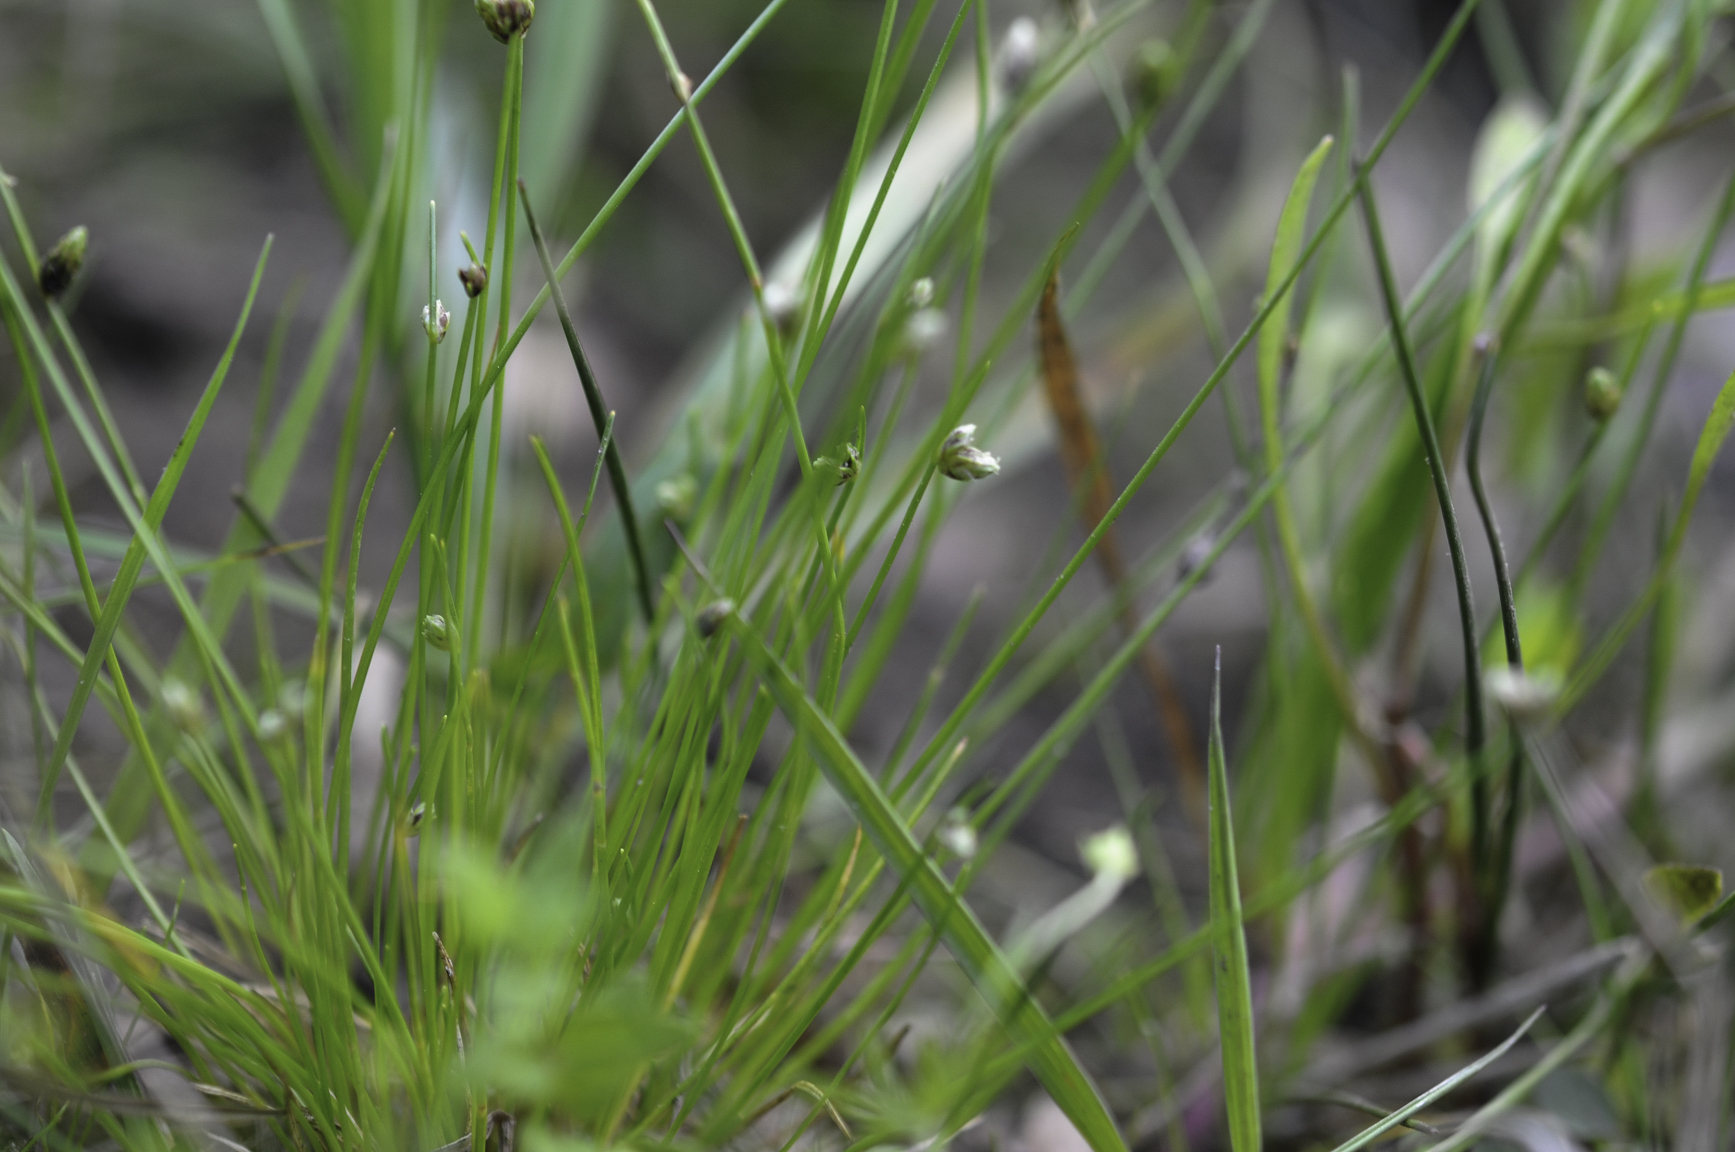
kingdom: Plantae
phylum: Tracheophyta
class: Liliopsida
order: Poales
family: Cyperaceae
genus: Isolepis
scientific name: Isolepis setacea
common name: Bristle club-rush
